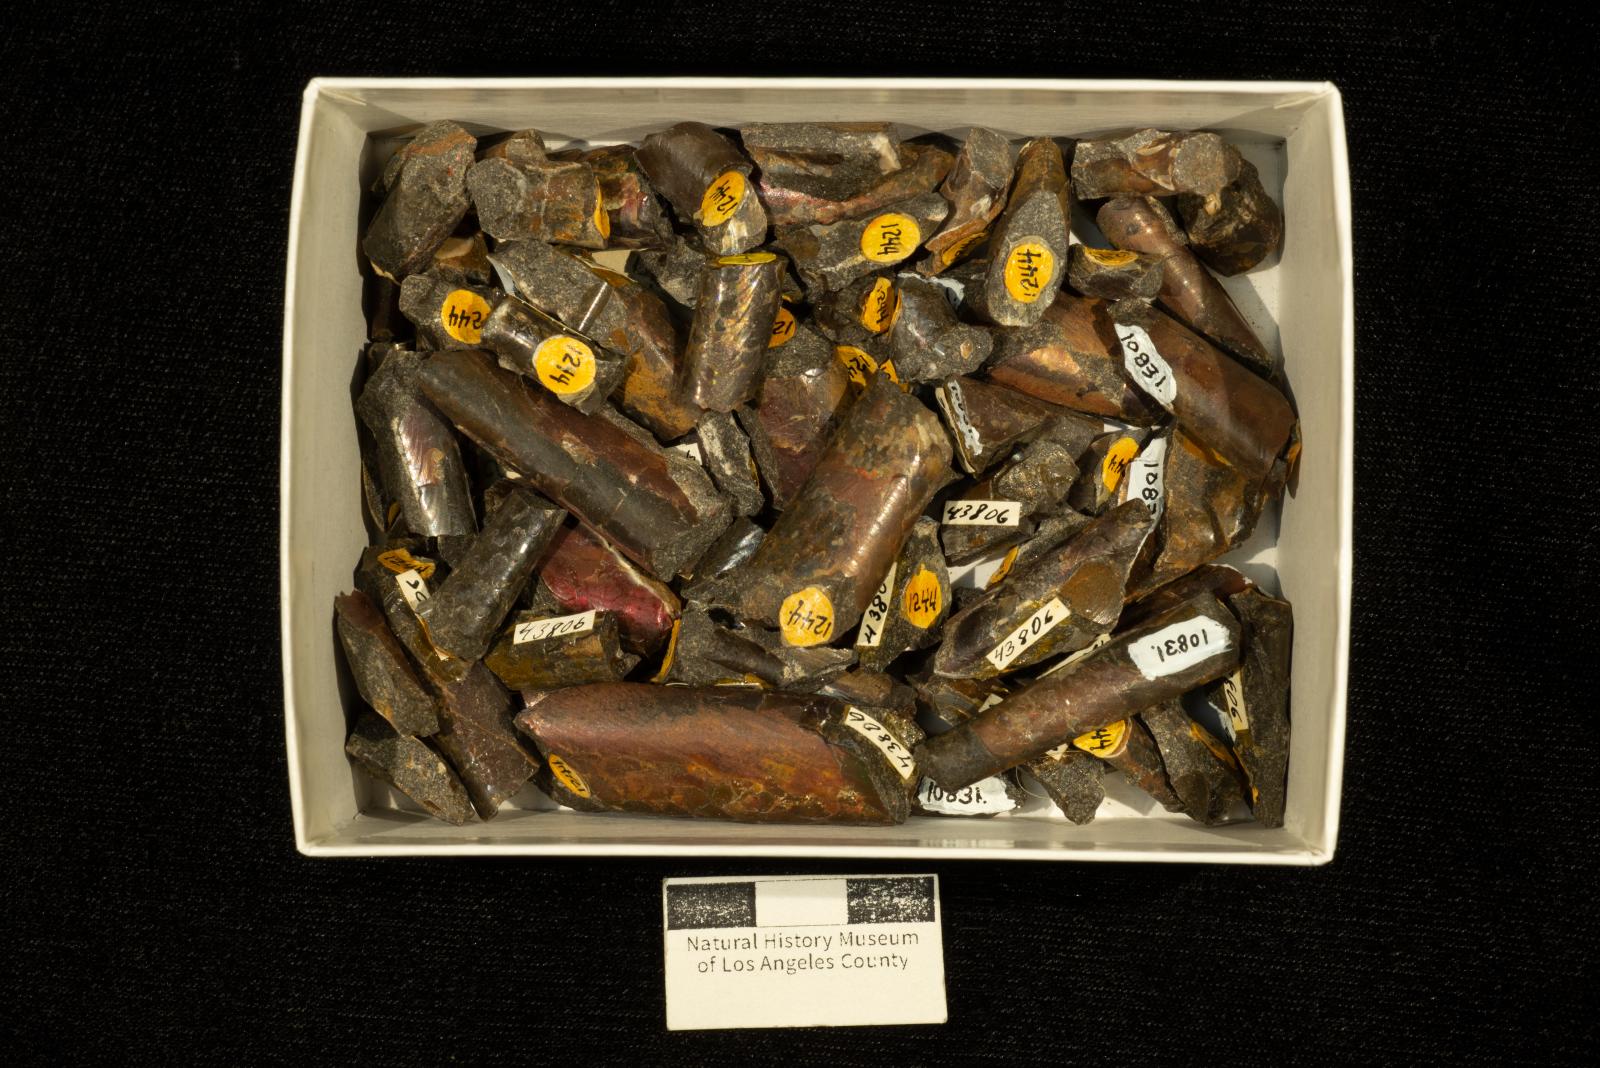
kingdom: Animalia
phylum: Mollusca
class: Cephalopoda
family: Baculitidae
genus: Baculites
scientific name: Baculites schencki
